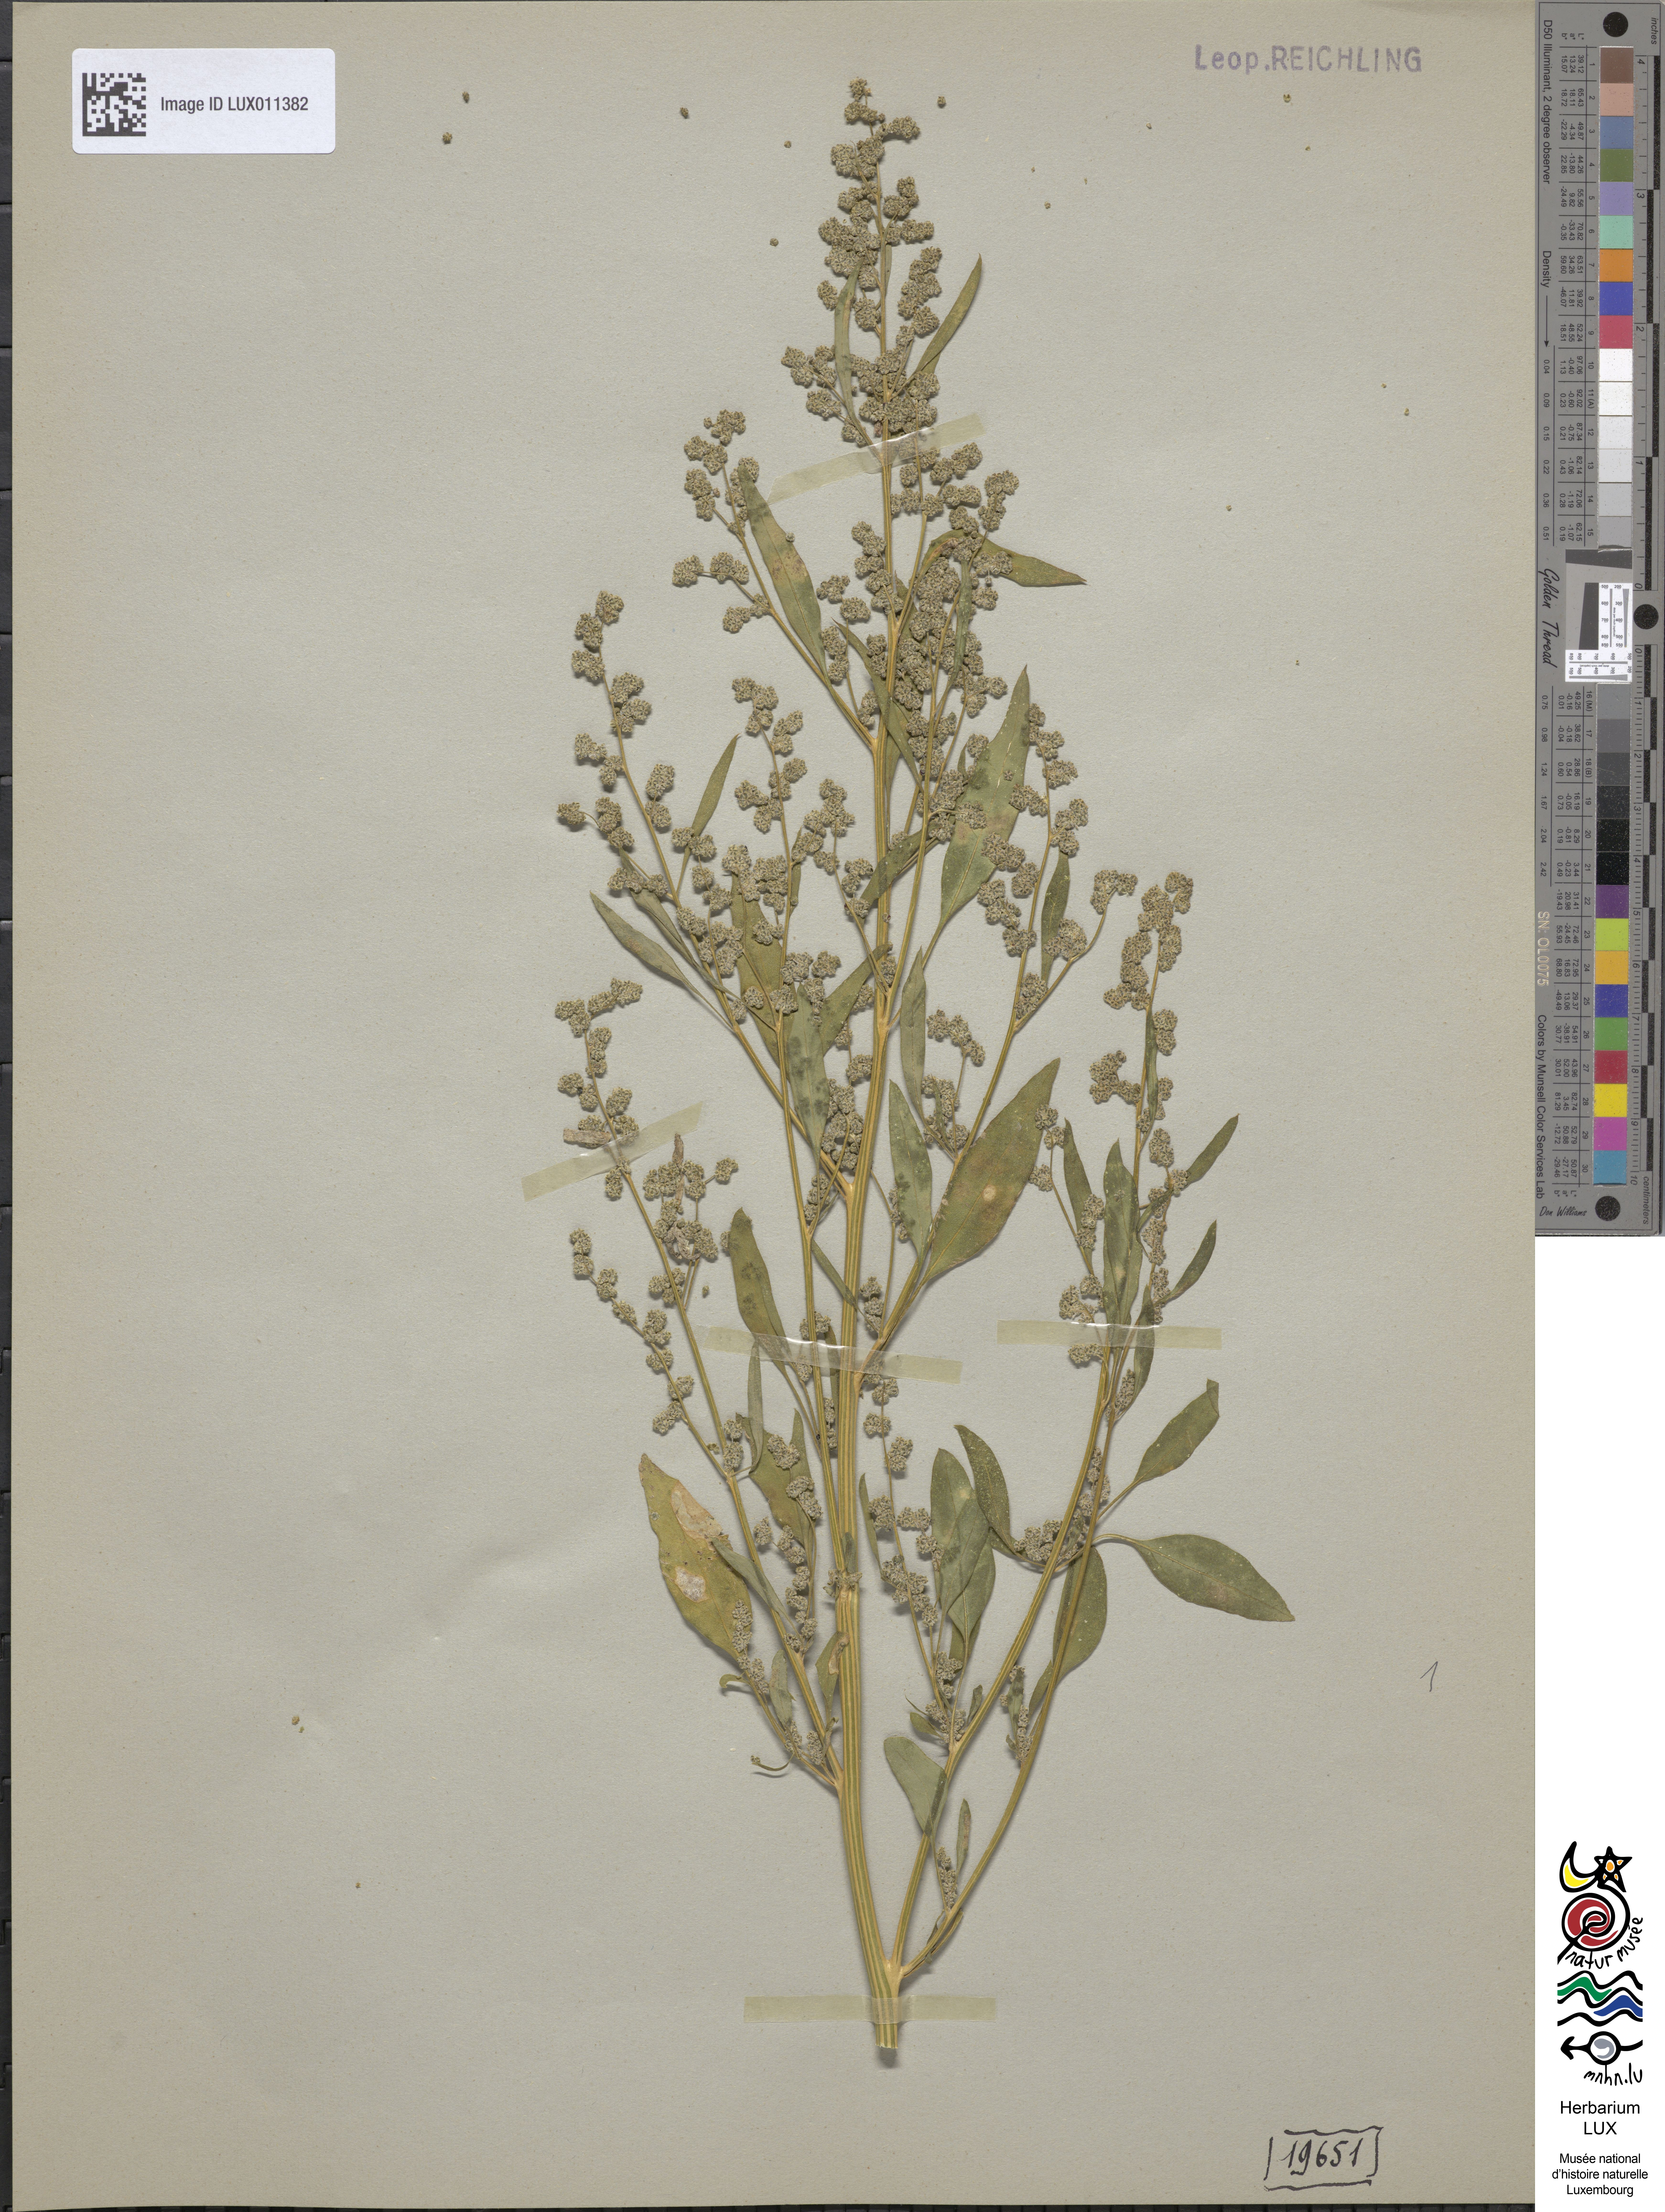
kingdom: Plantae
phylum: Tracheophyta
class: Magnoliopsida
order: Caryophyllales
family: Amaranthaceae
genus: Chenopodium
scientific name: Chenopodium
